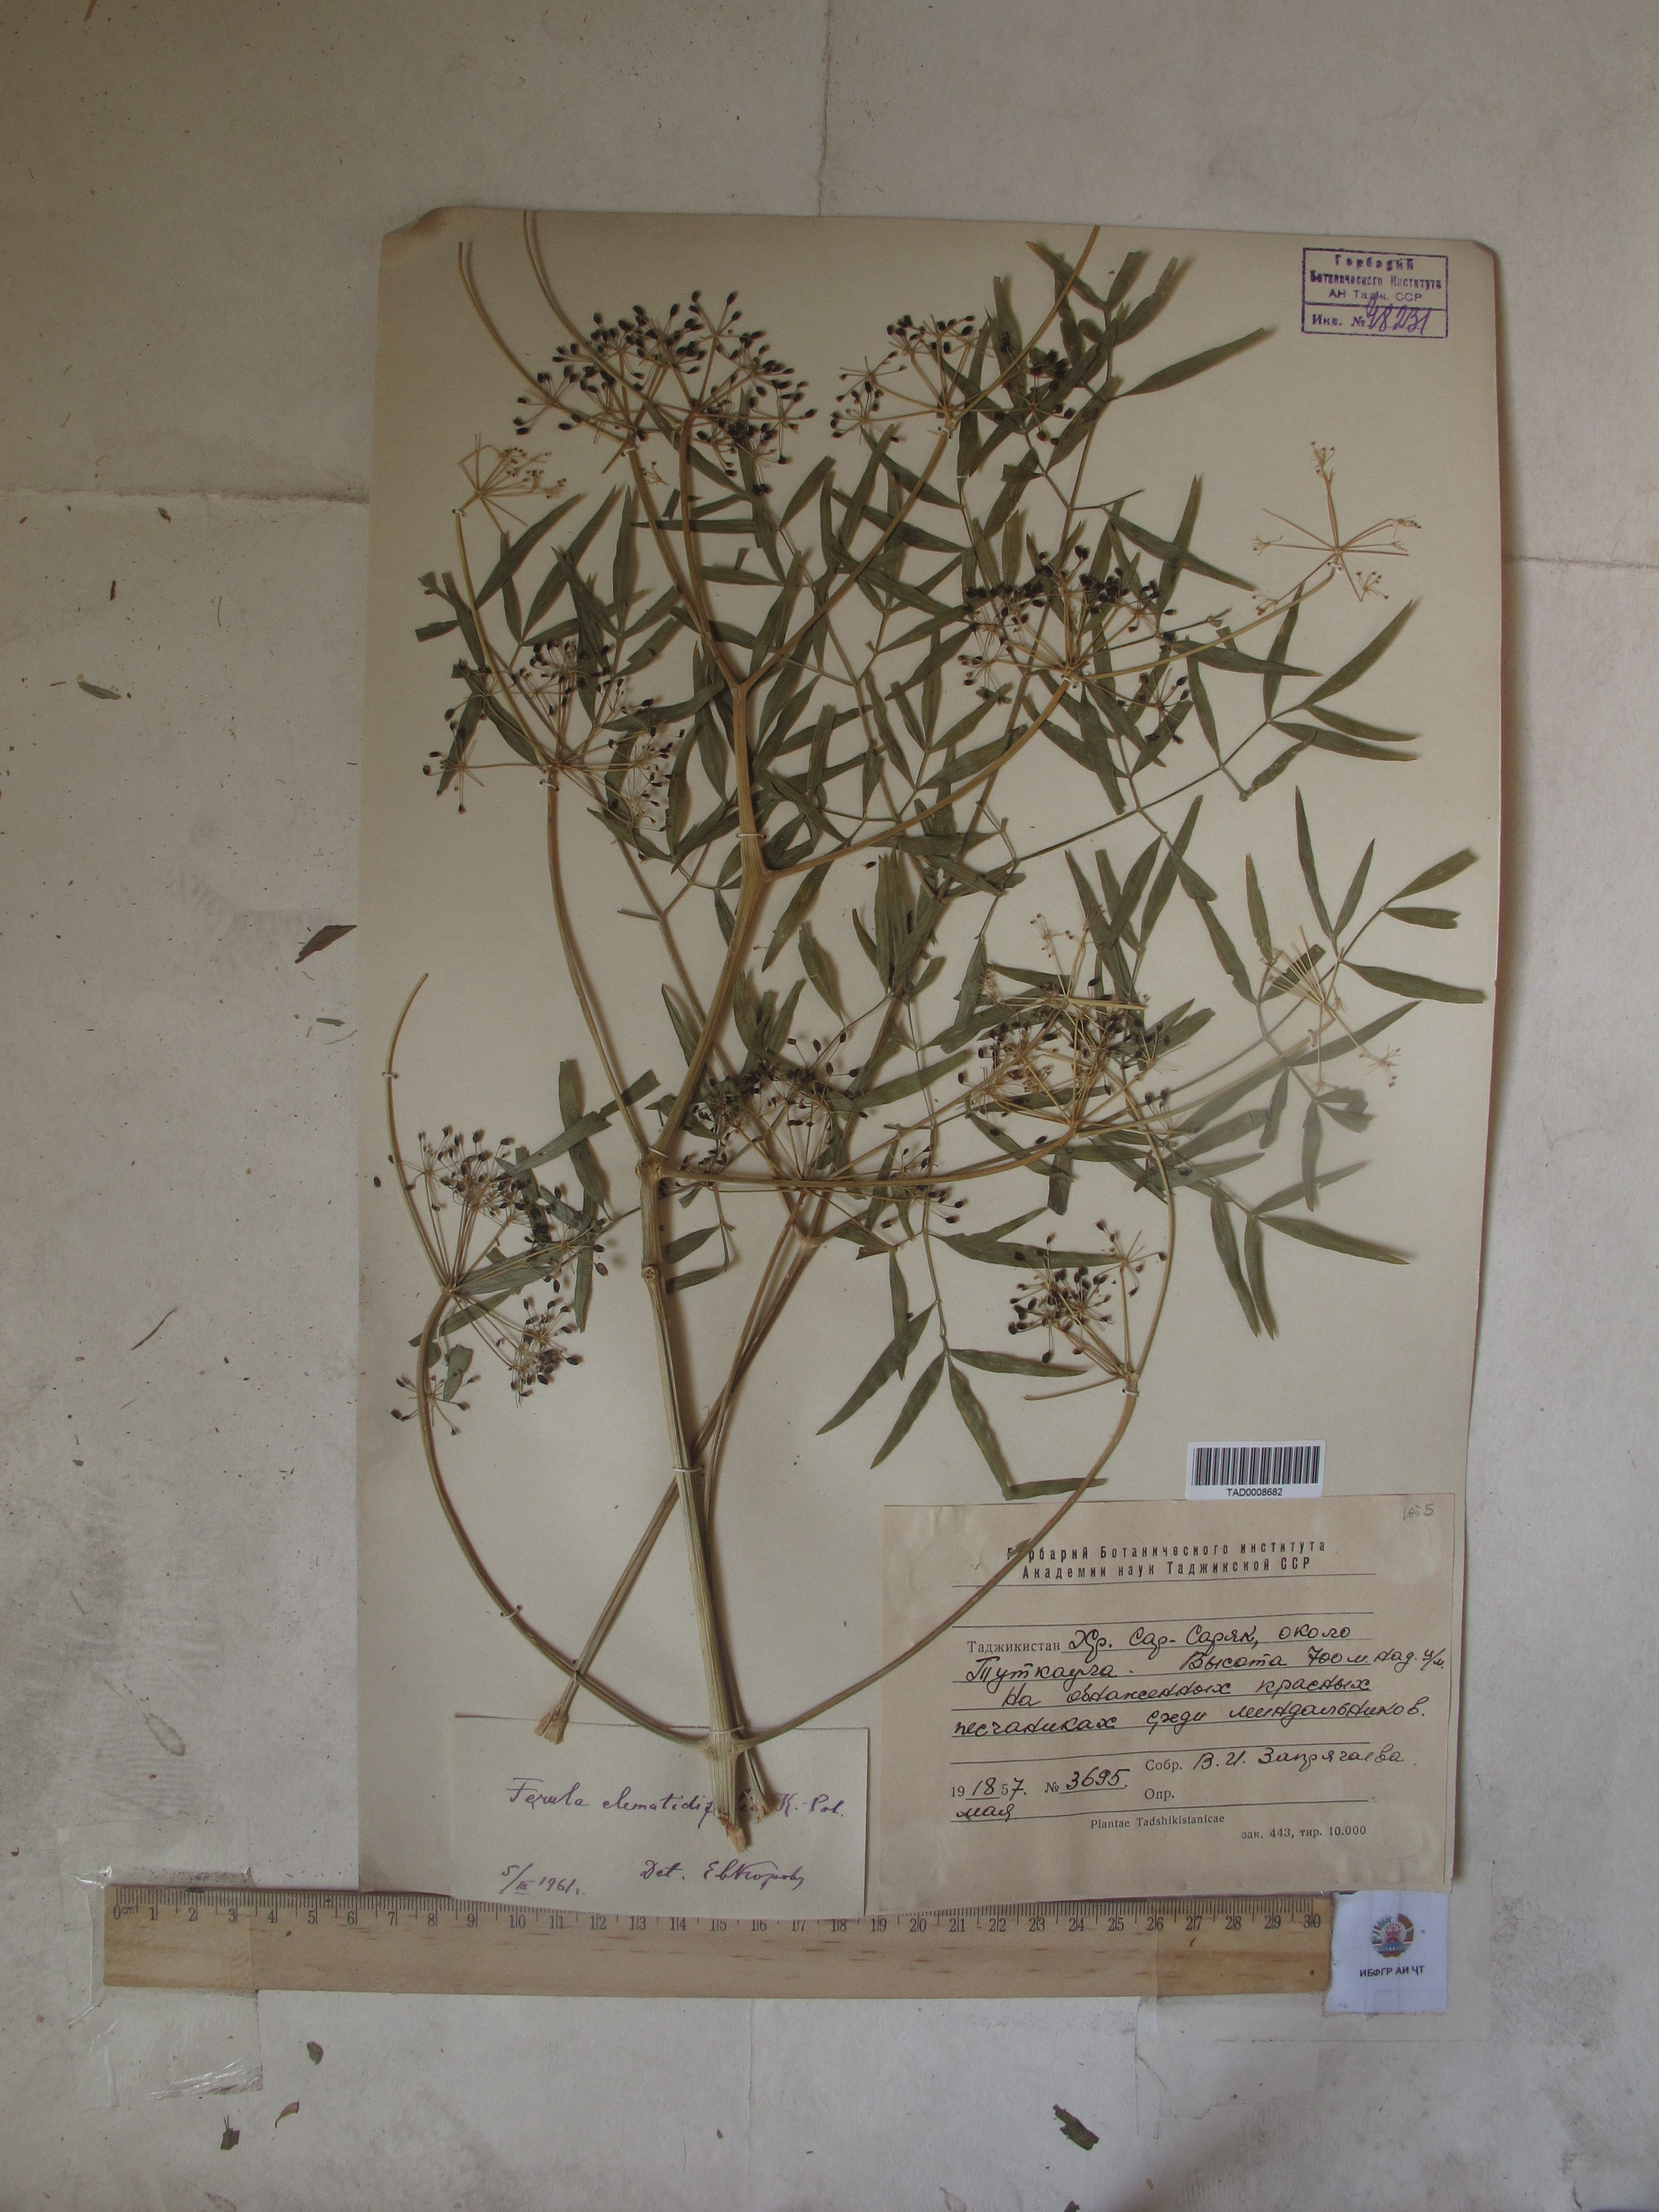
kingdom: Plantae
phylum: Tracheophyta
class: Magnoliopsida
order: Apiales
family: Apiaceae
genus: Ferula
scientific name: Ferula clematidifolia
